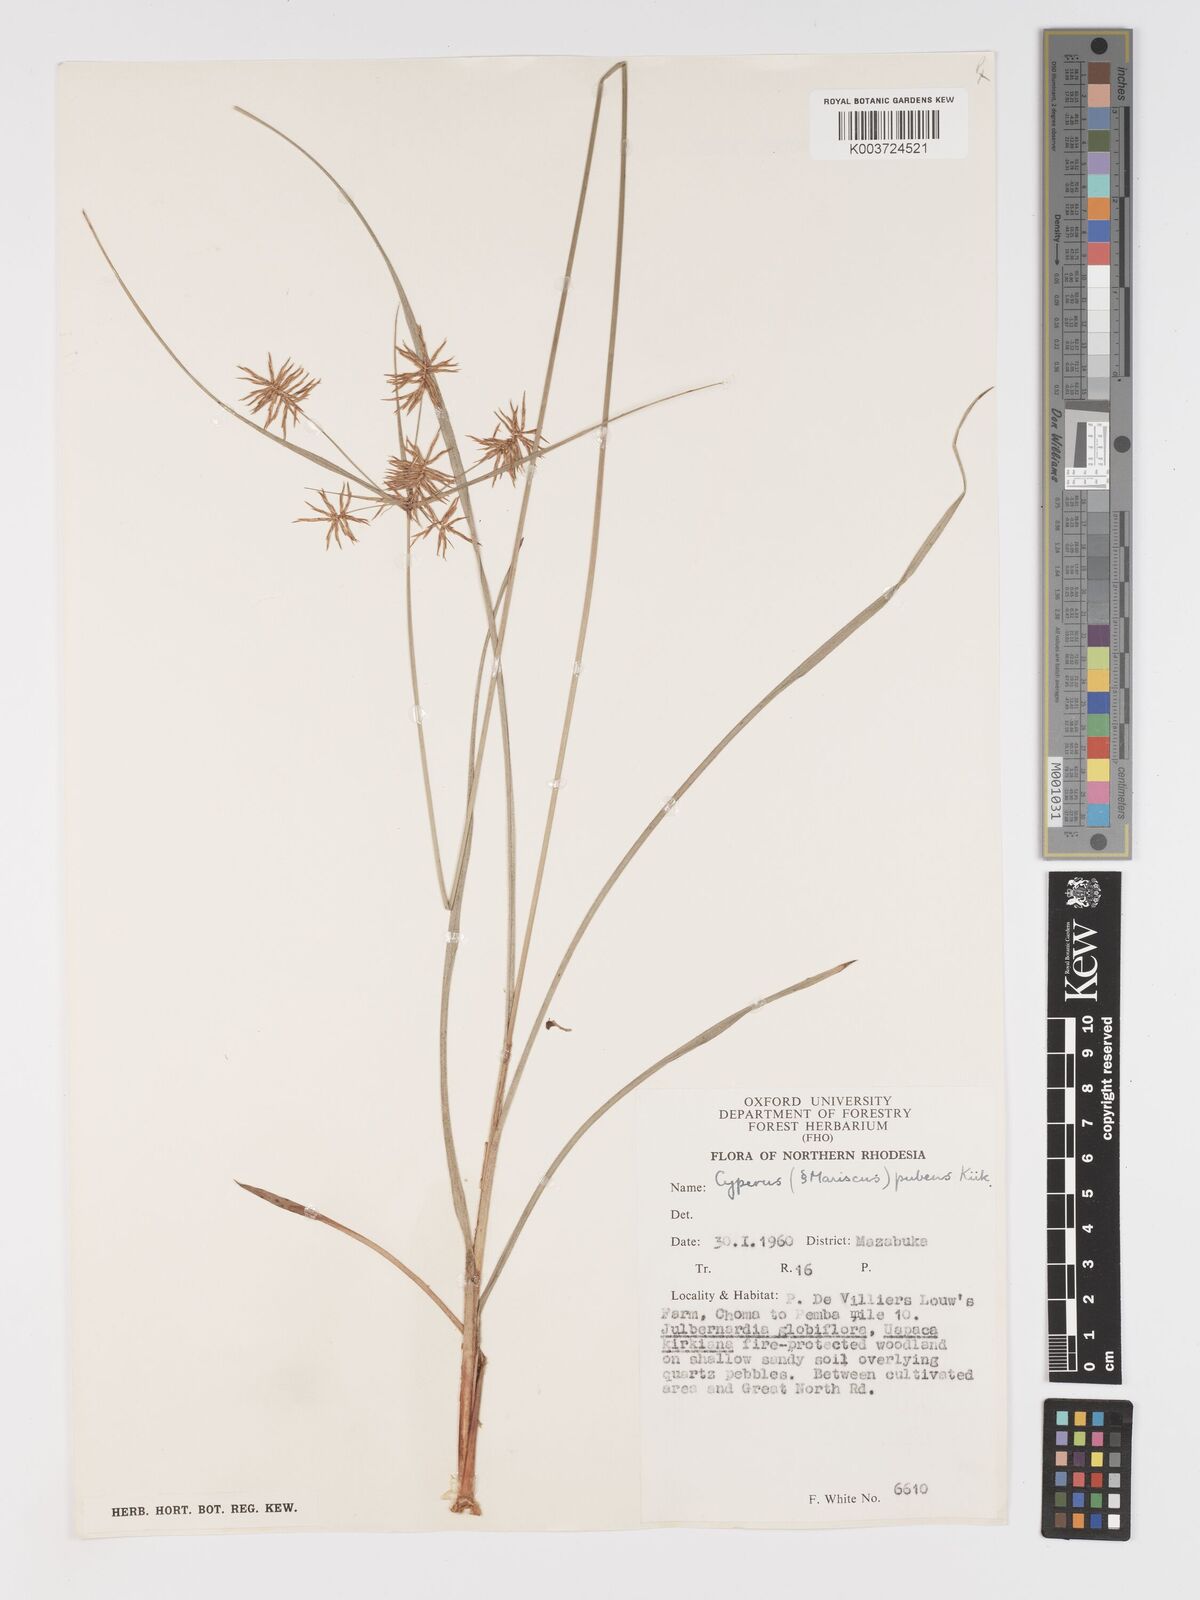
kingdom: Plantae
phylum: Tracheophyta
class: Liliopsida
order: Poales
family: Cyperaceae
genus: Cyperus
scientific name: Cyperus pubens
